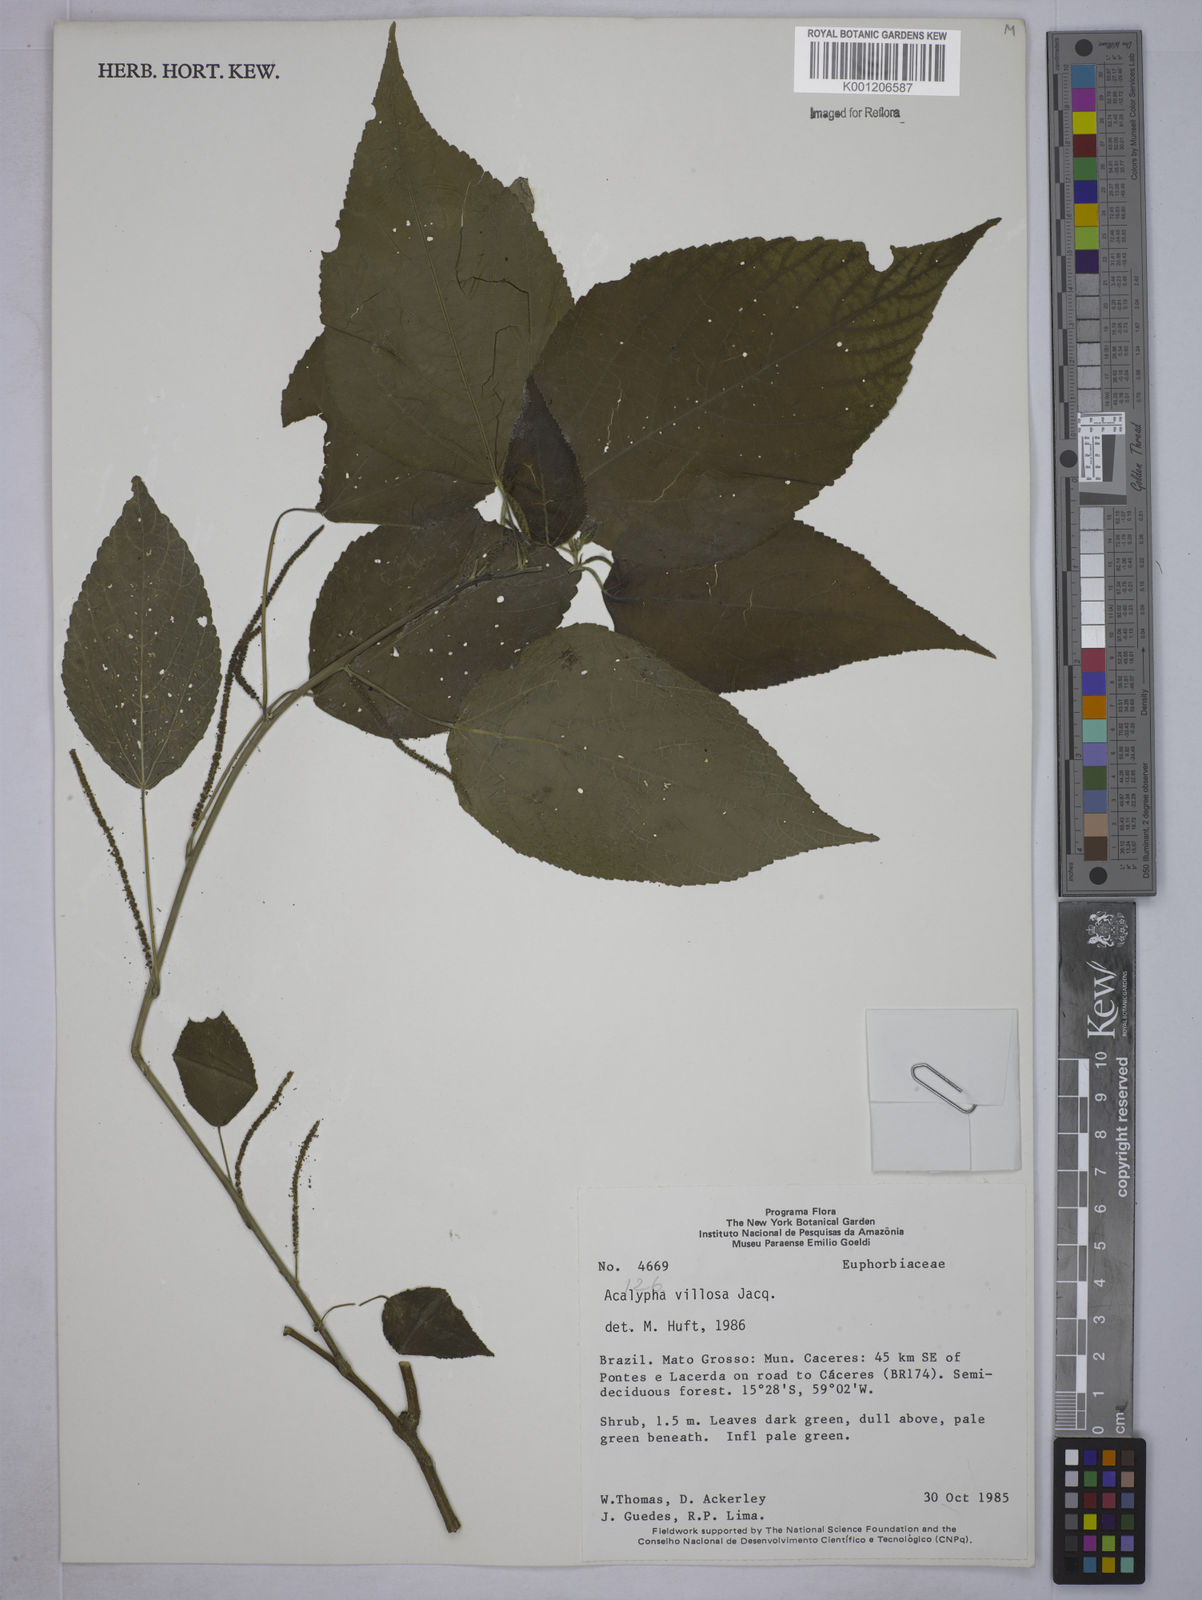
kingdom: Plantae
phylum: Tracheophyta
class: Magnoliopsida
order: Malpighiales
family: Euphorbiaceae
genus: Acalypha
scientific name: Acalypha villosa
